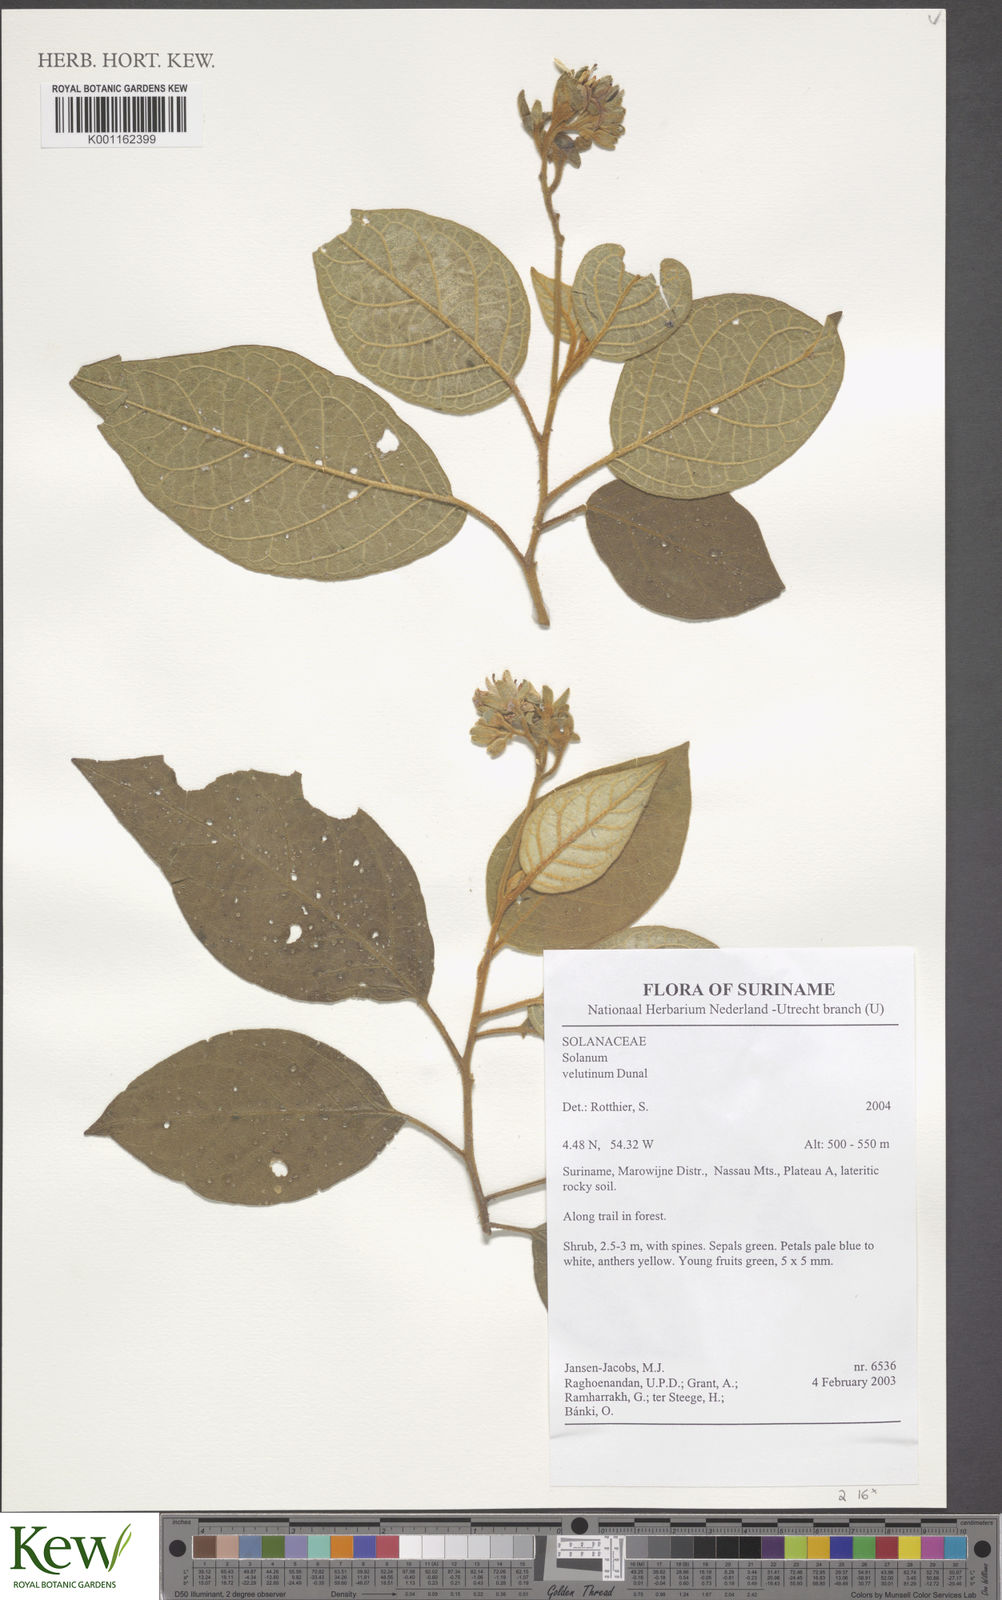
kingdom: Plantae
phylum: Tracheophyta
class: Magnoliopsida
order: Solanales
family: Solanaceae
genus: Solanum
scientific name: Solanum velutinum
